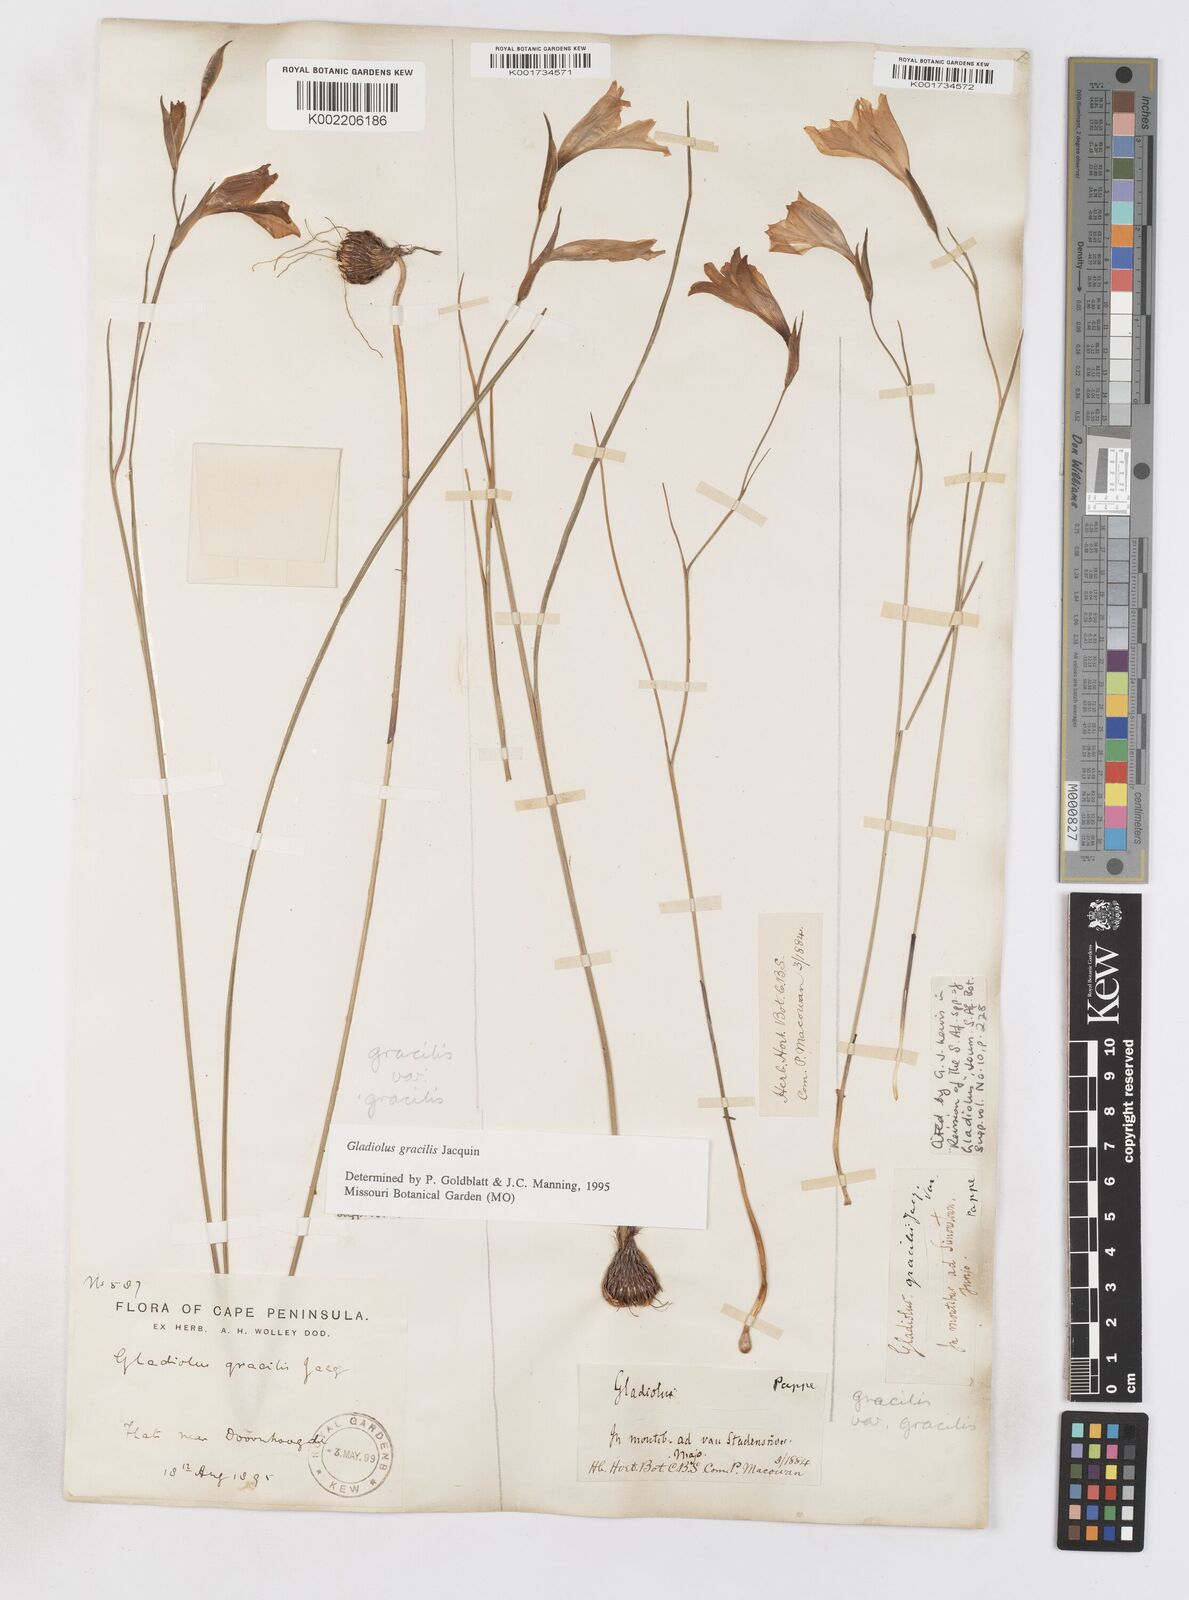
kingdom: Plantae
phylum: Tracheophyta
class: Liliopsida
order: Asparagales
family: Iridaceae
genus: Gladiolus
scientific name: Gladiolus gracilis
